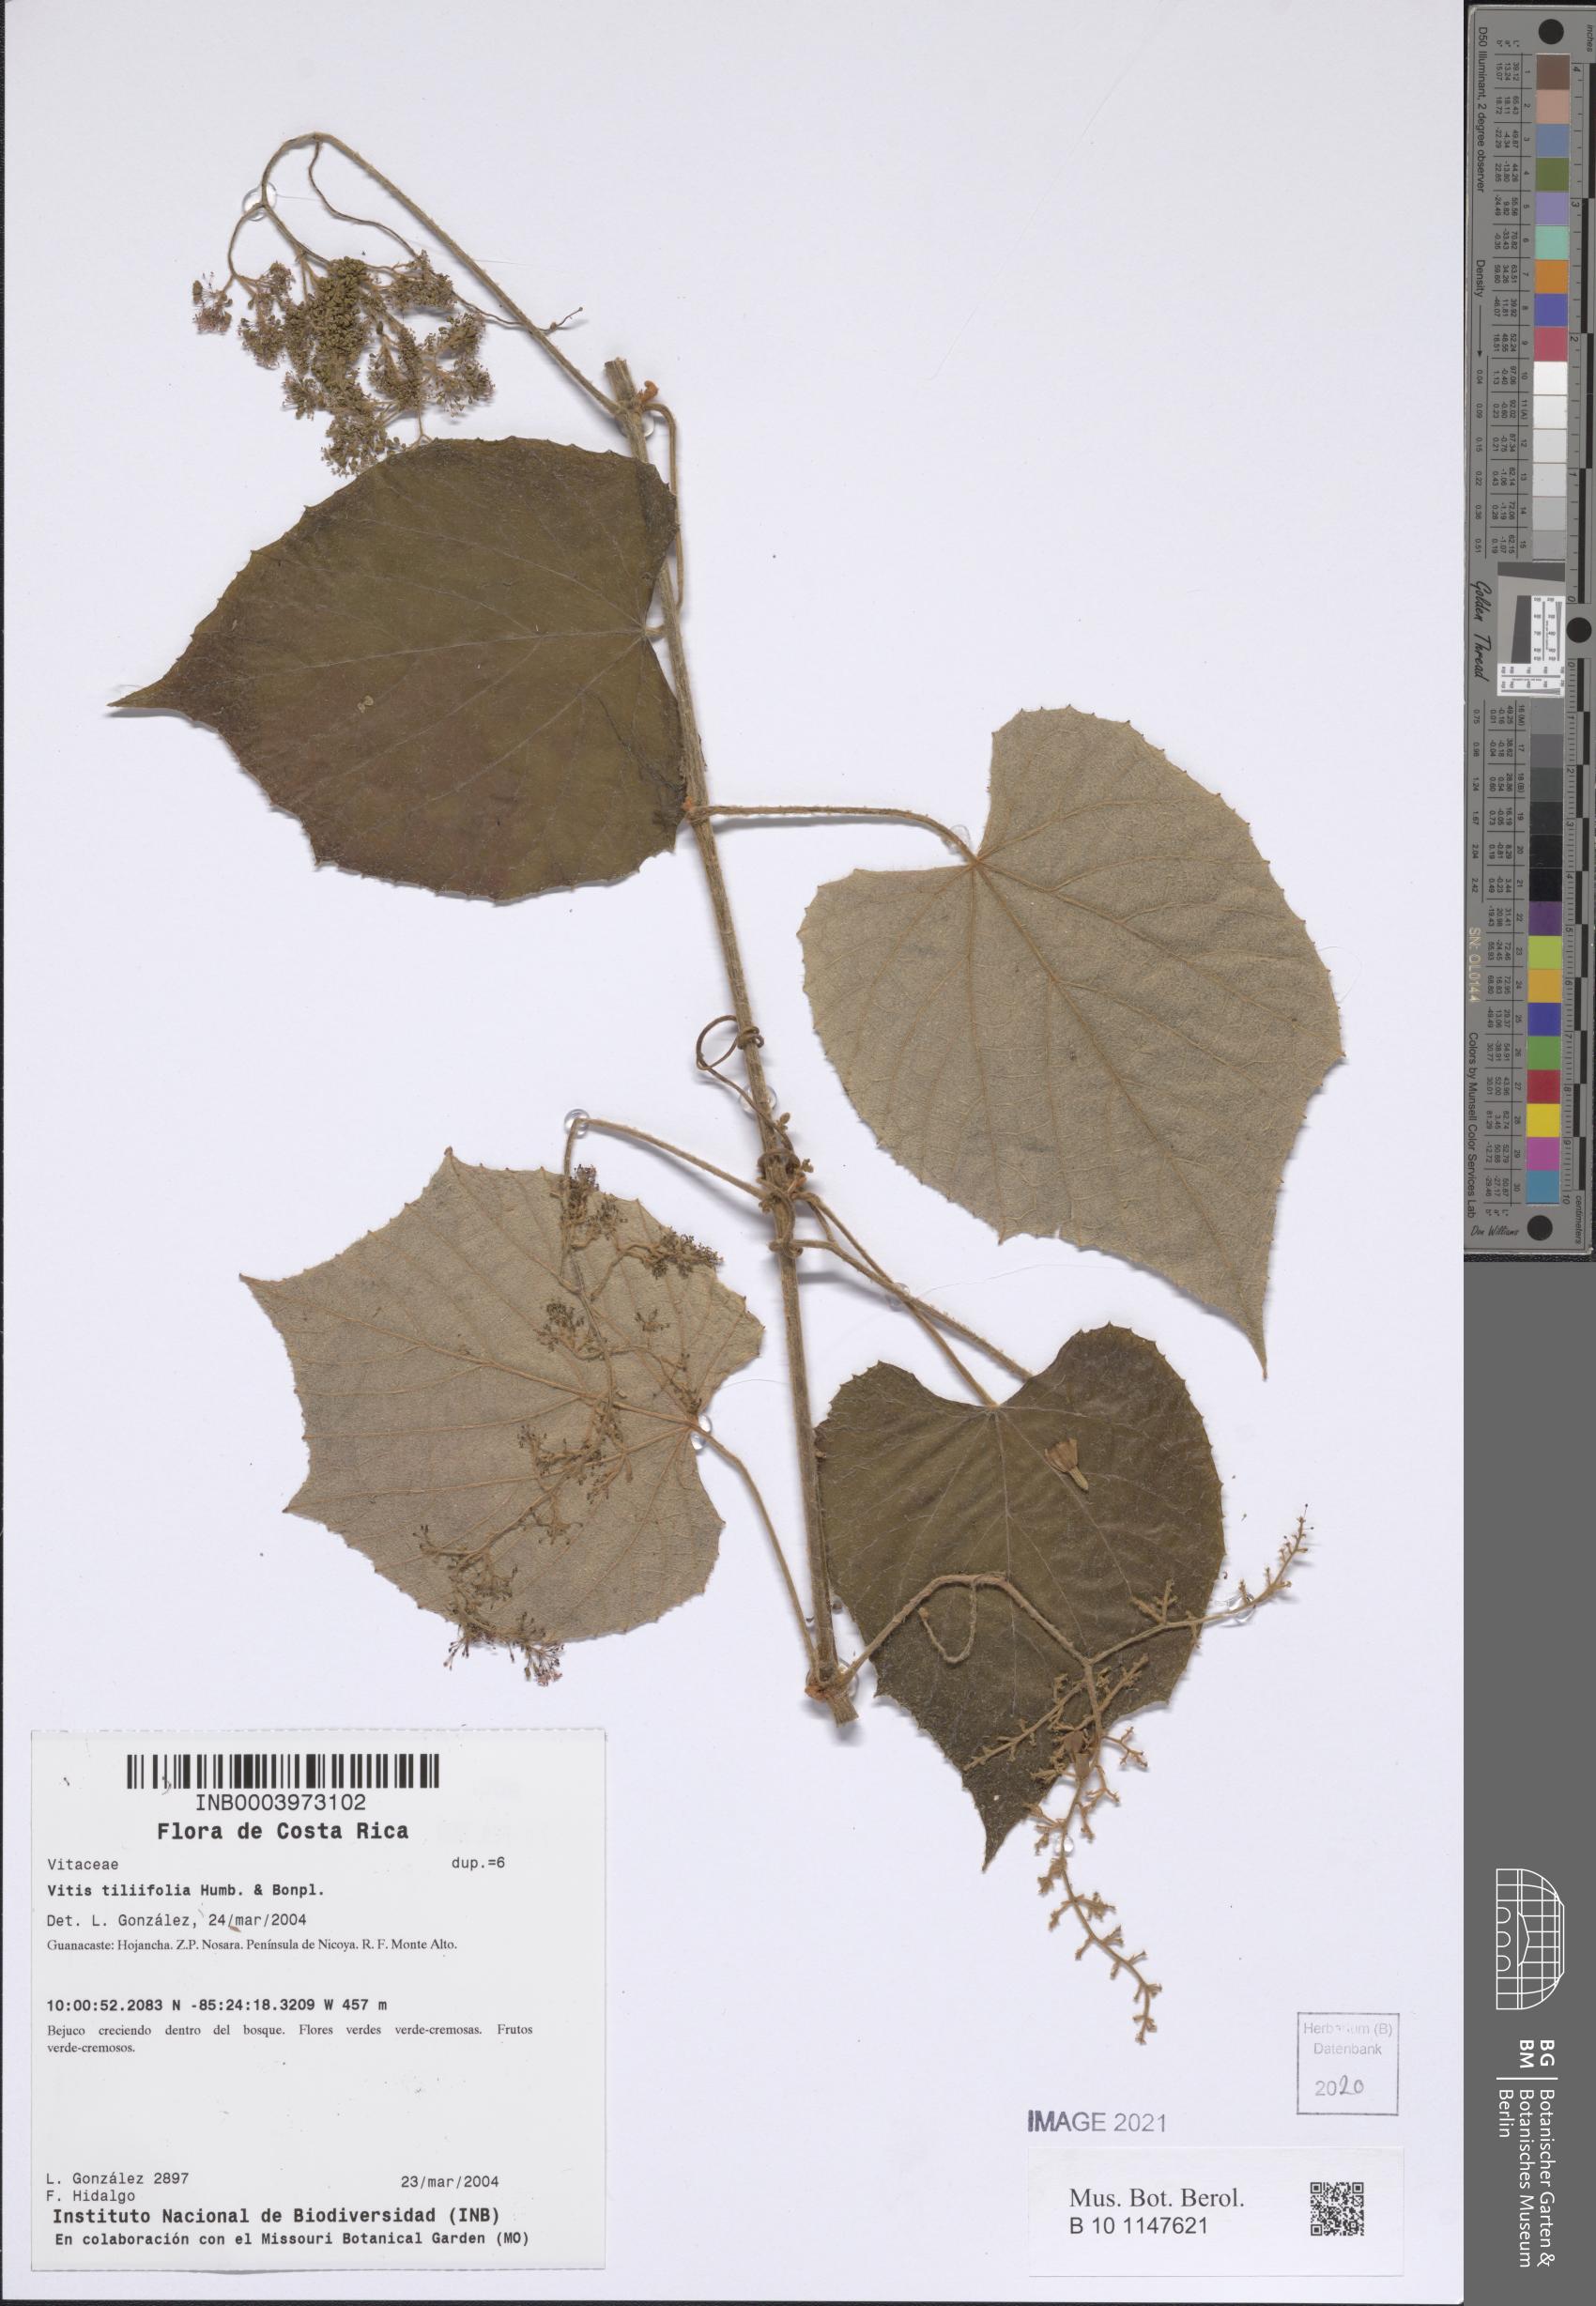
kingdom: Plantae
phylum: Tracheophyta
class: Magnoliopsida
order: Vitales
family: Vitaceae
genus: Vitis
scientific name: Vitis tiliifolia
